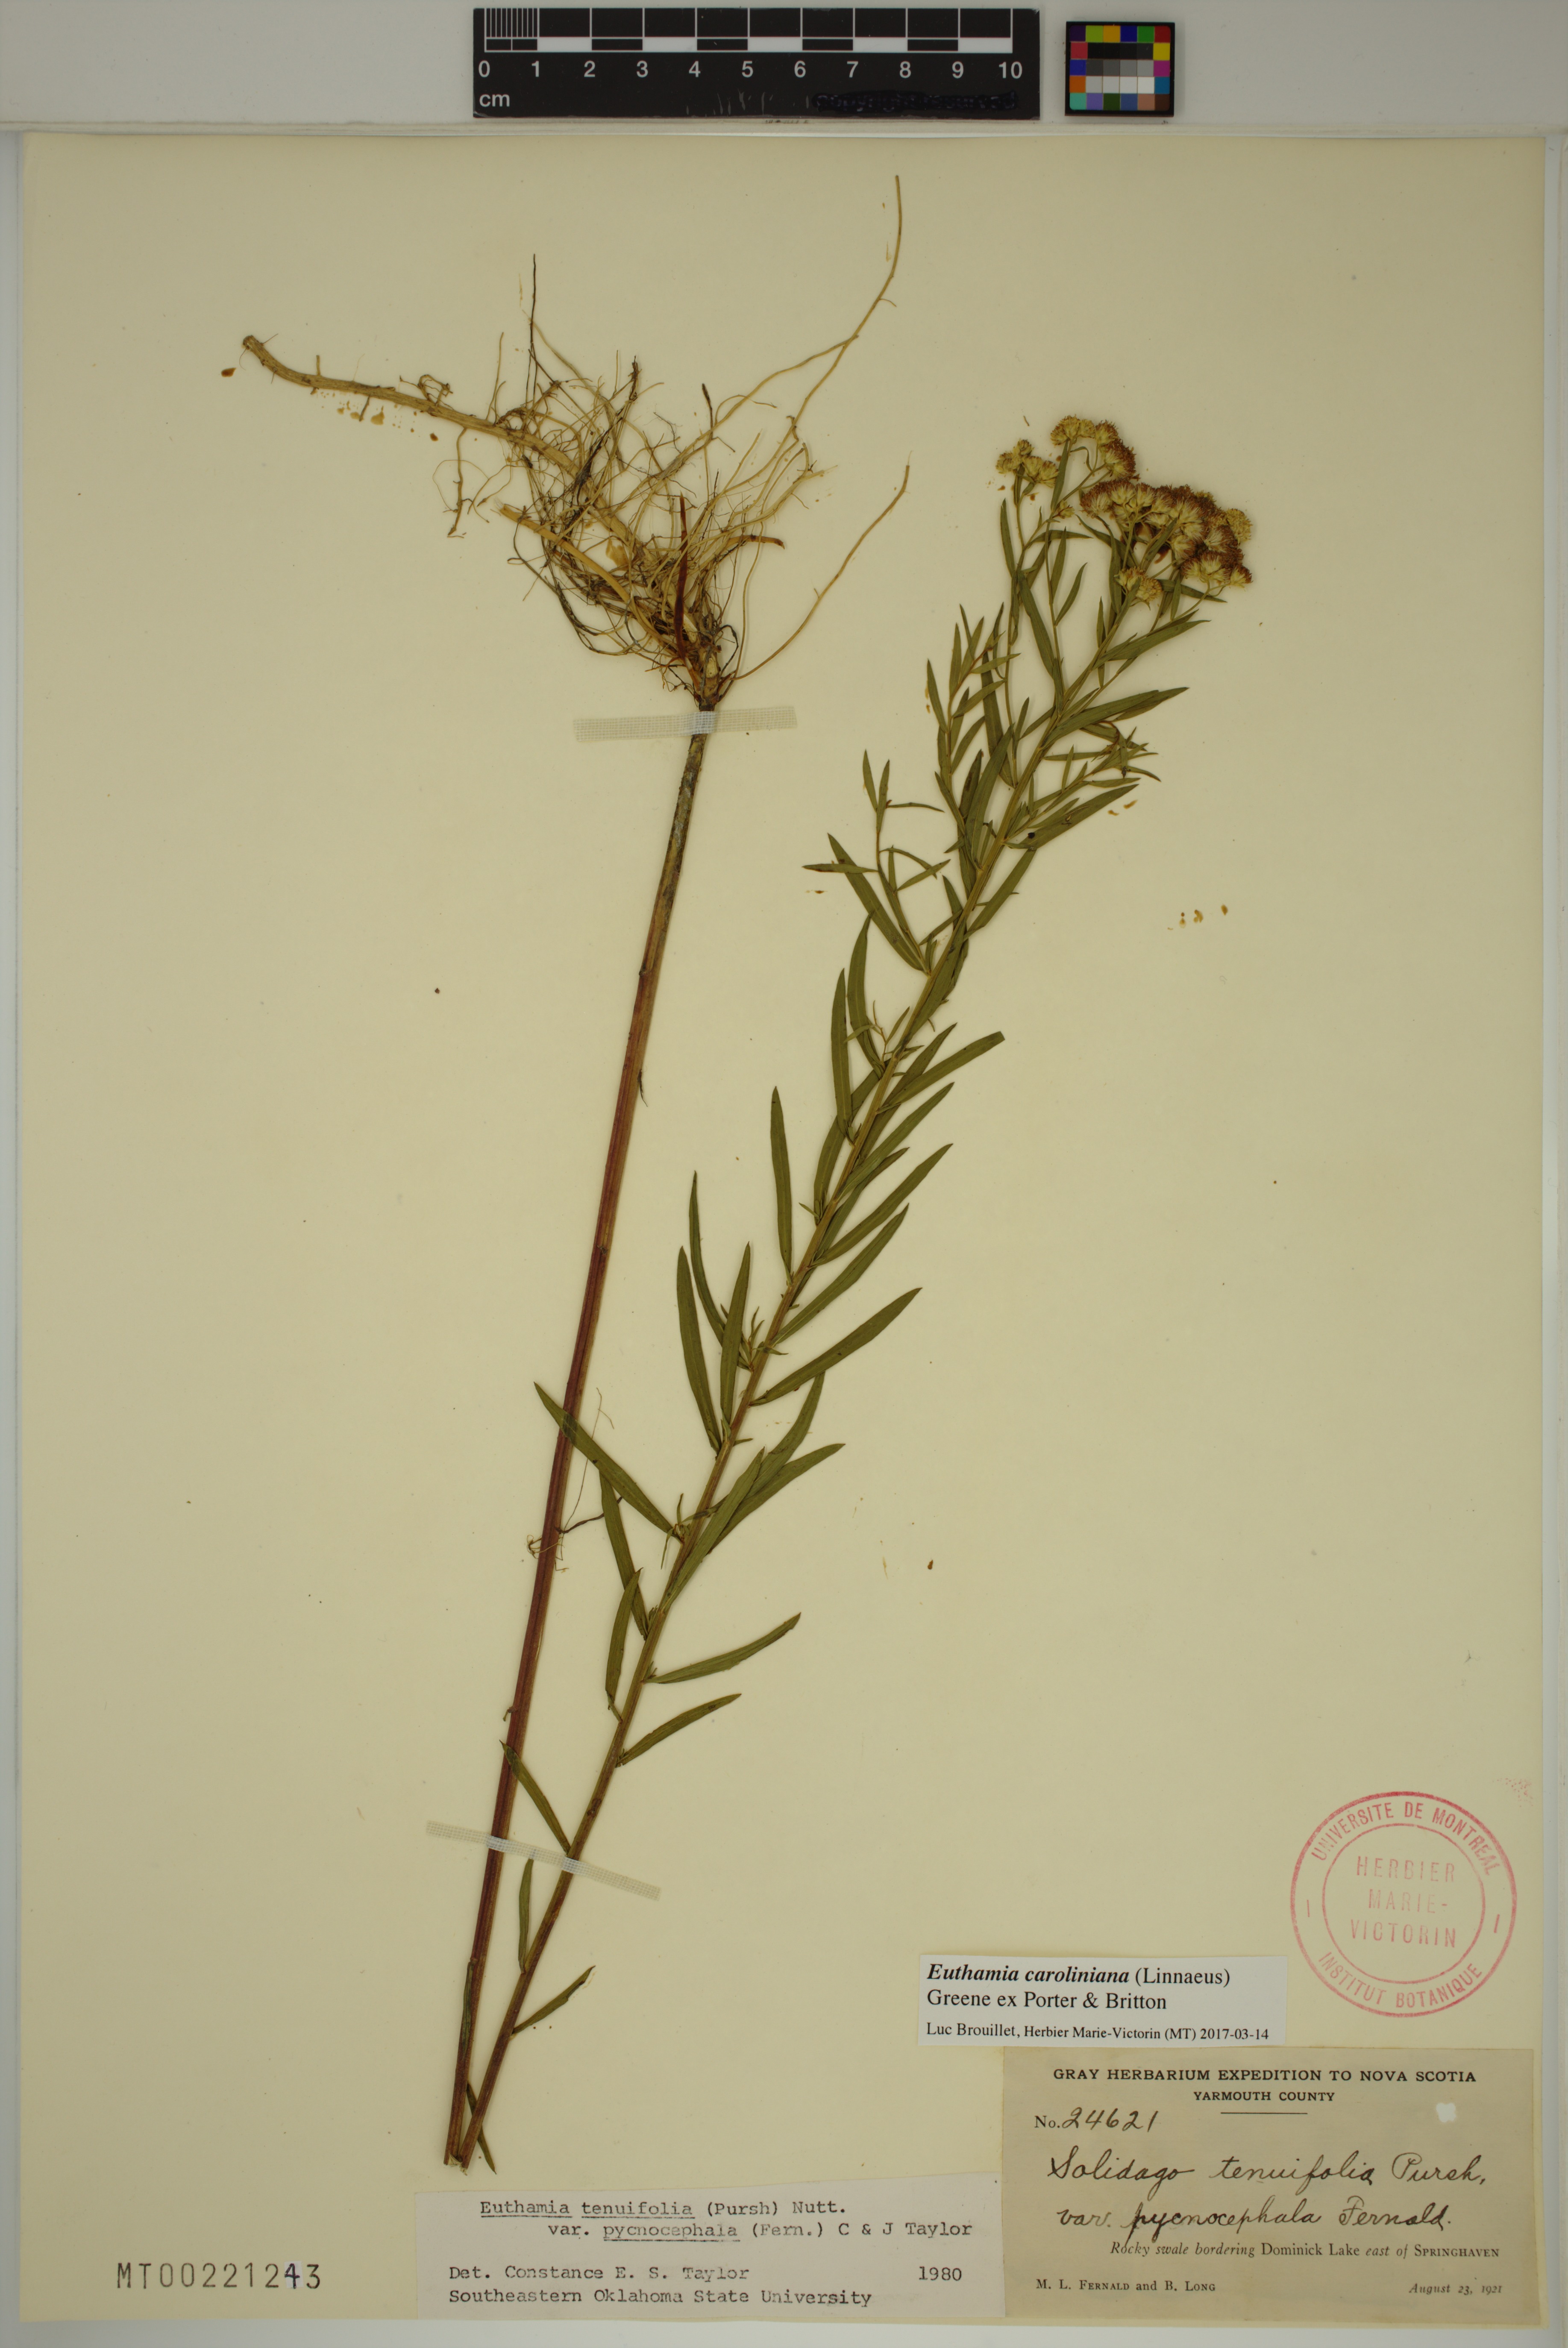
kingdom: Plantae
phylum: Tracheophyta
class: Magnoliopsida
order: Asterales
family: Asteraceae
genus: Euthamia
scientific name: Euthamia galetorum
